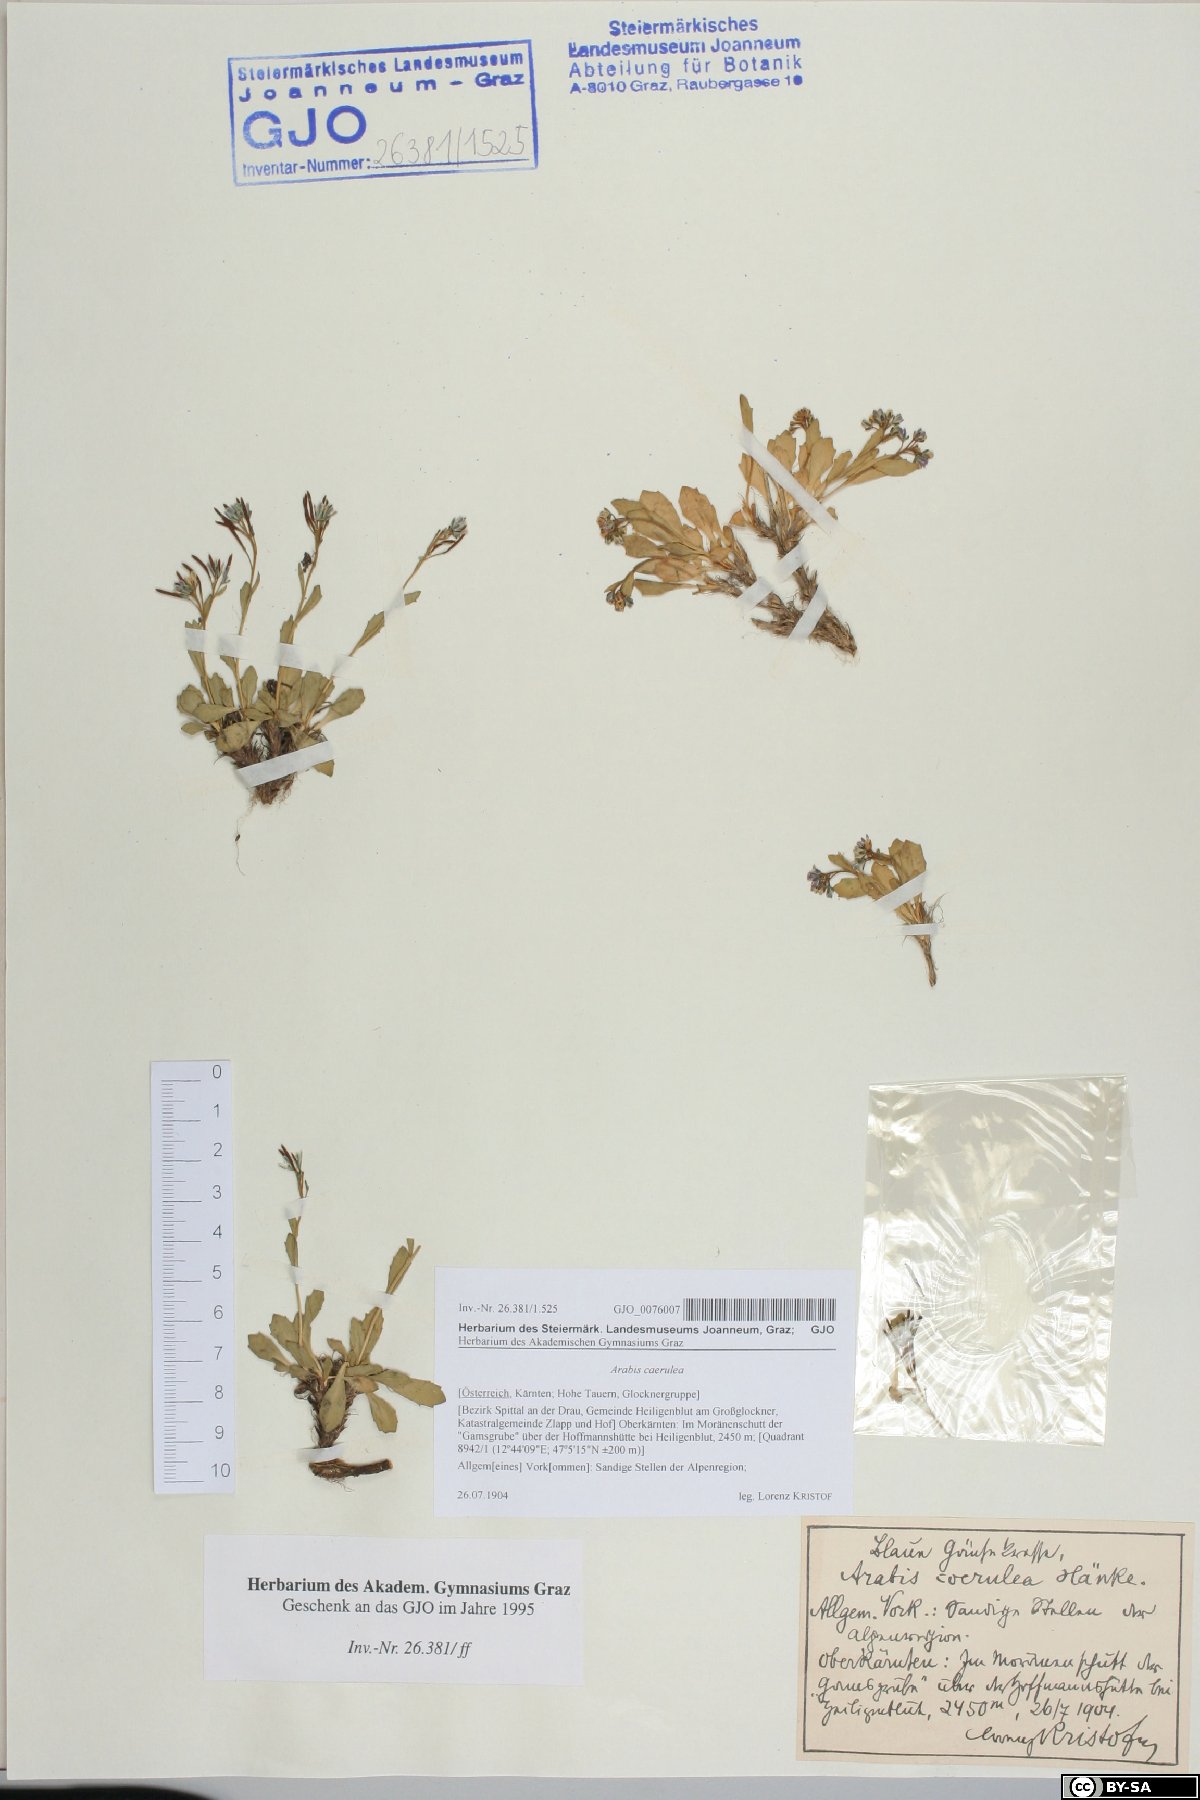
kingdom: Plantae
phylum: Tracheophyta
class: Magnoliopsida
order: Brassicales
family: Brassicaceae
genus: Arabis
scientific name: Arabis caerulea
